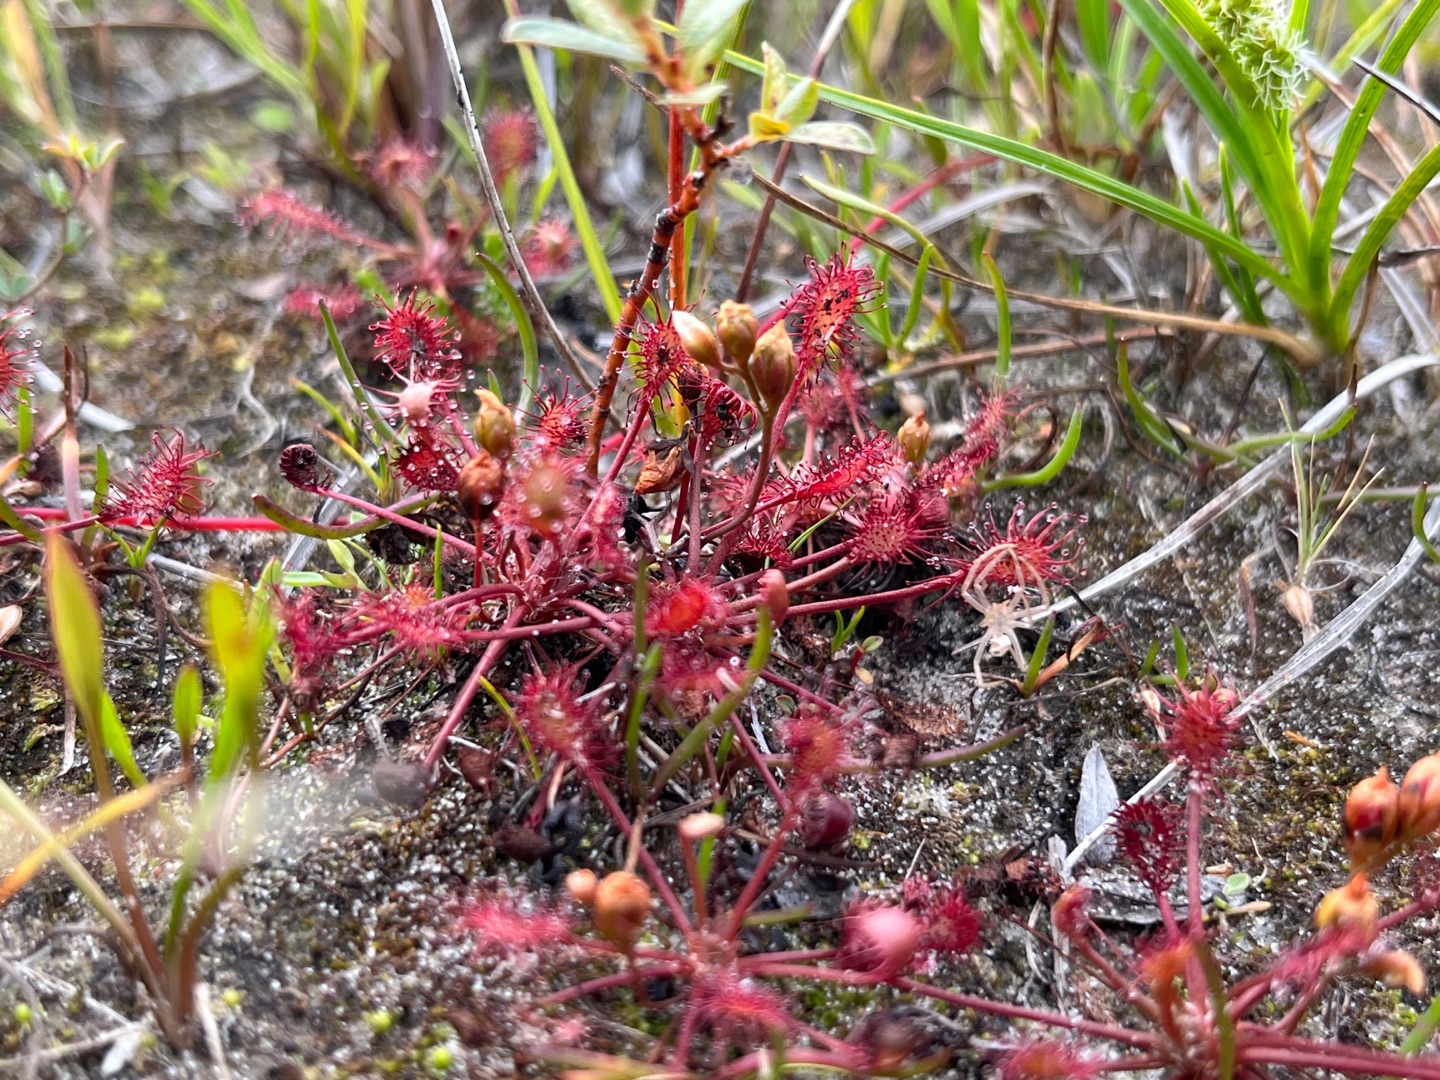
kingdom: Plantae
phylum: Tracheophyta
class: Magnoliopsida
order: Caryophyllales
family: Droseraceae
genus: Drosera
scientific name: Drosera intermedia
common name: Liden soldug
